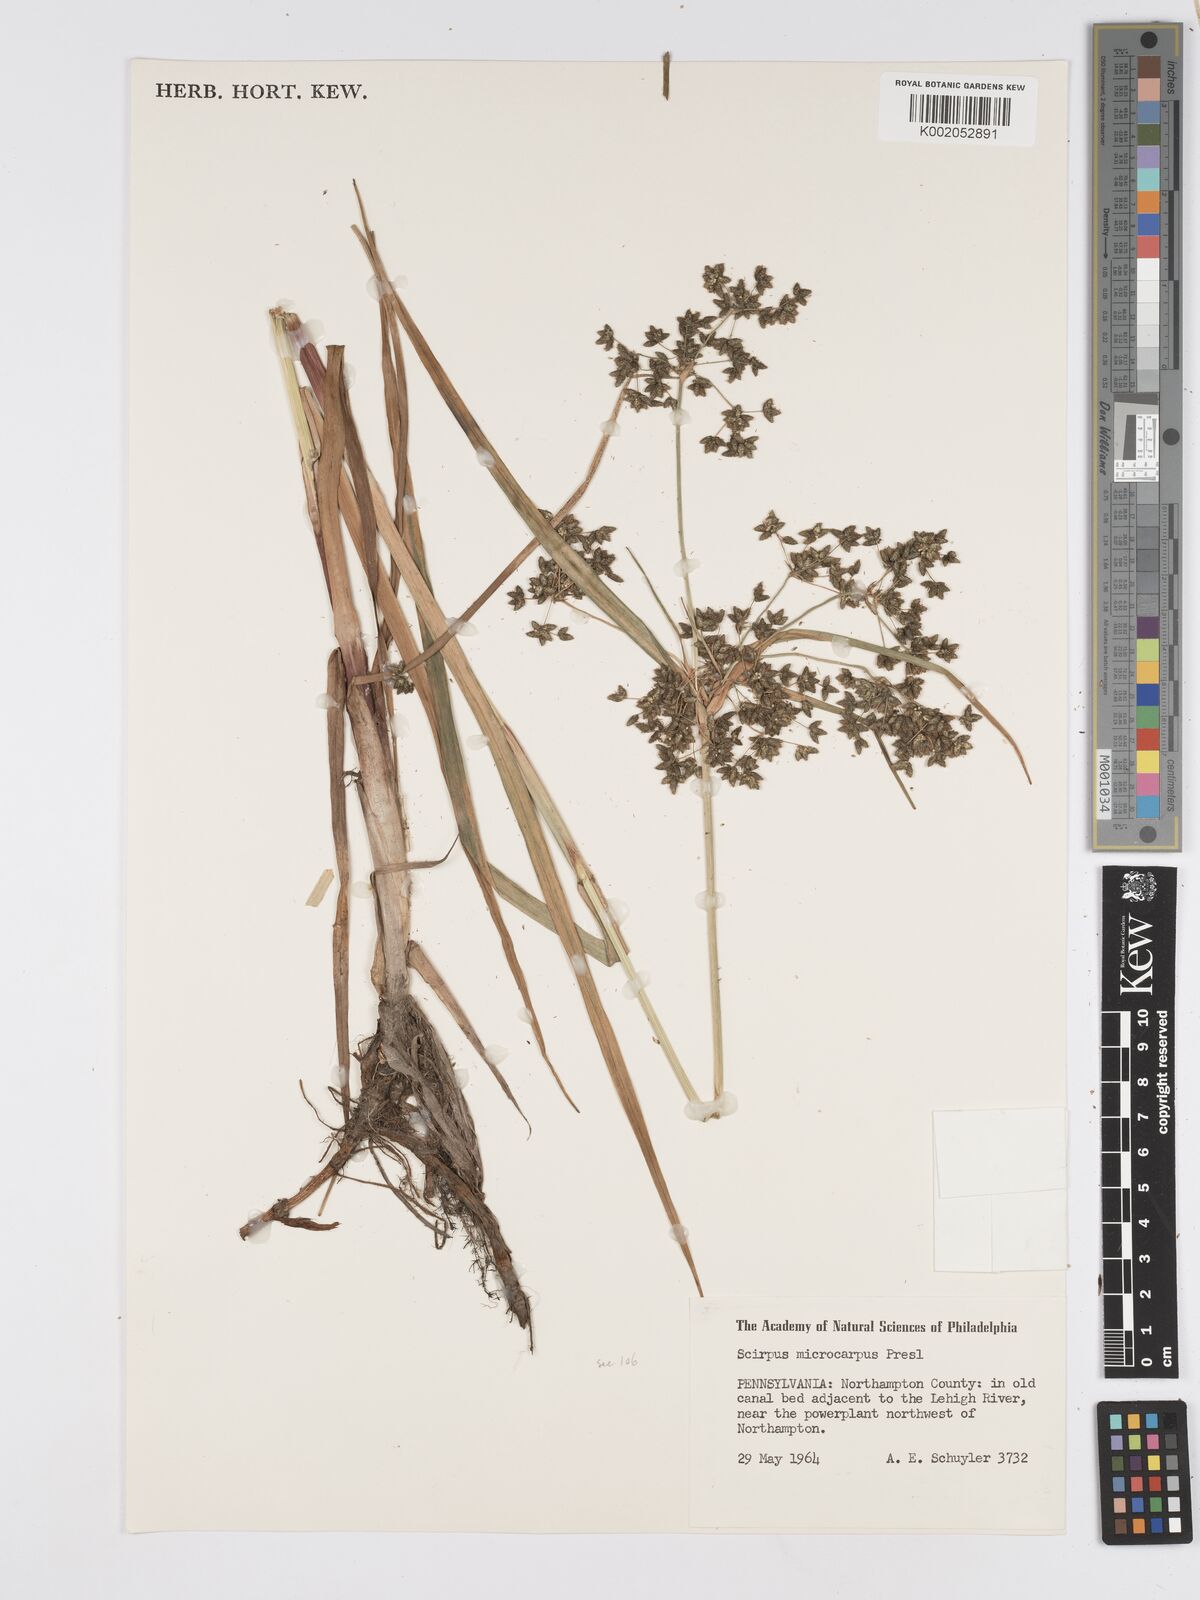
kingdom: Plantae
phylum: Tracheophyta
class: Liliopsida
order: Poales
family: Cyperaceae
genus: Scirpus
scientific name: Scirpus microcarpus
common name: Panicled bulrush
